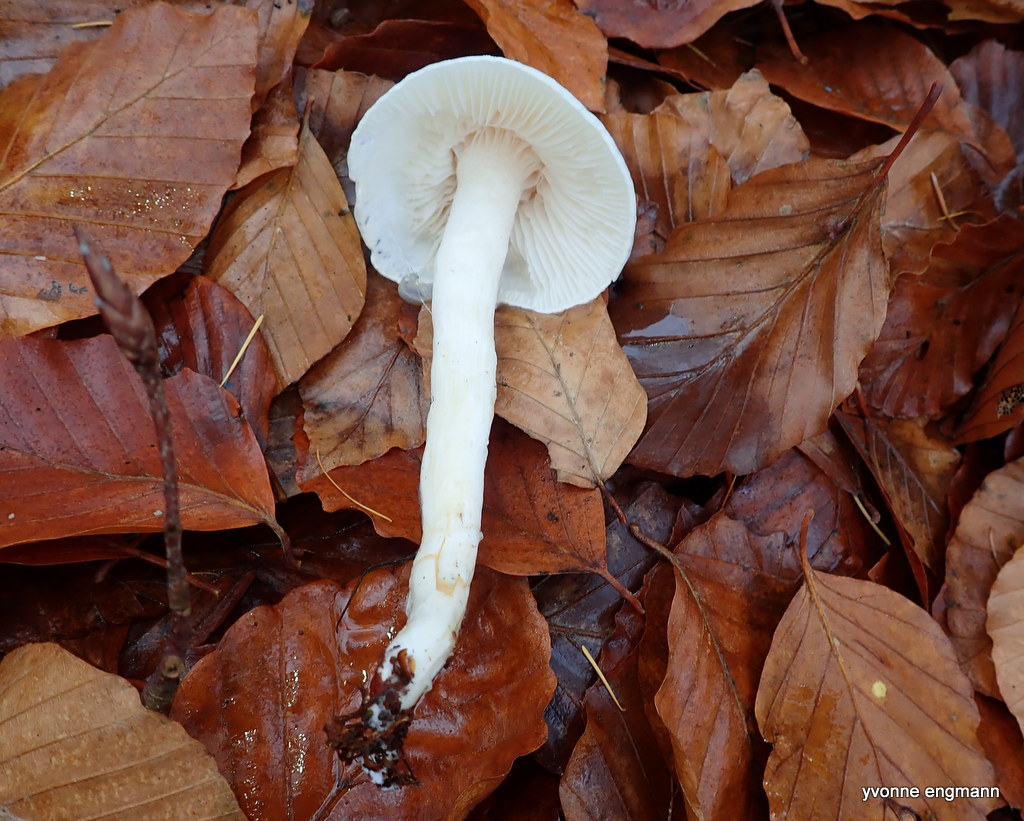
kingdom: Fungi
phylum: Basidiomycota
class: Agaricomycetes
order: Agaricales
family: Hygrophoraceae
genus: Hygrophorus
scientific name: Hygrophorus eburneus
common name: elfenbens-sneglehat
